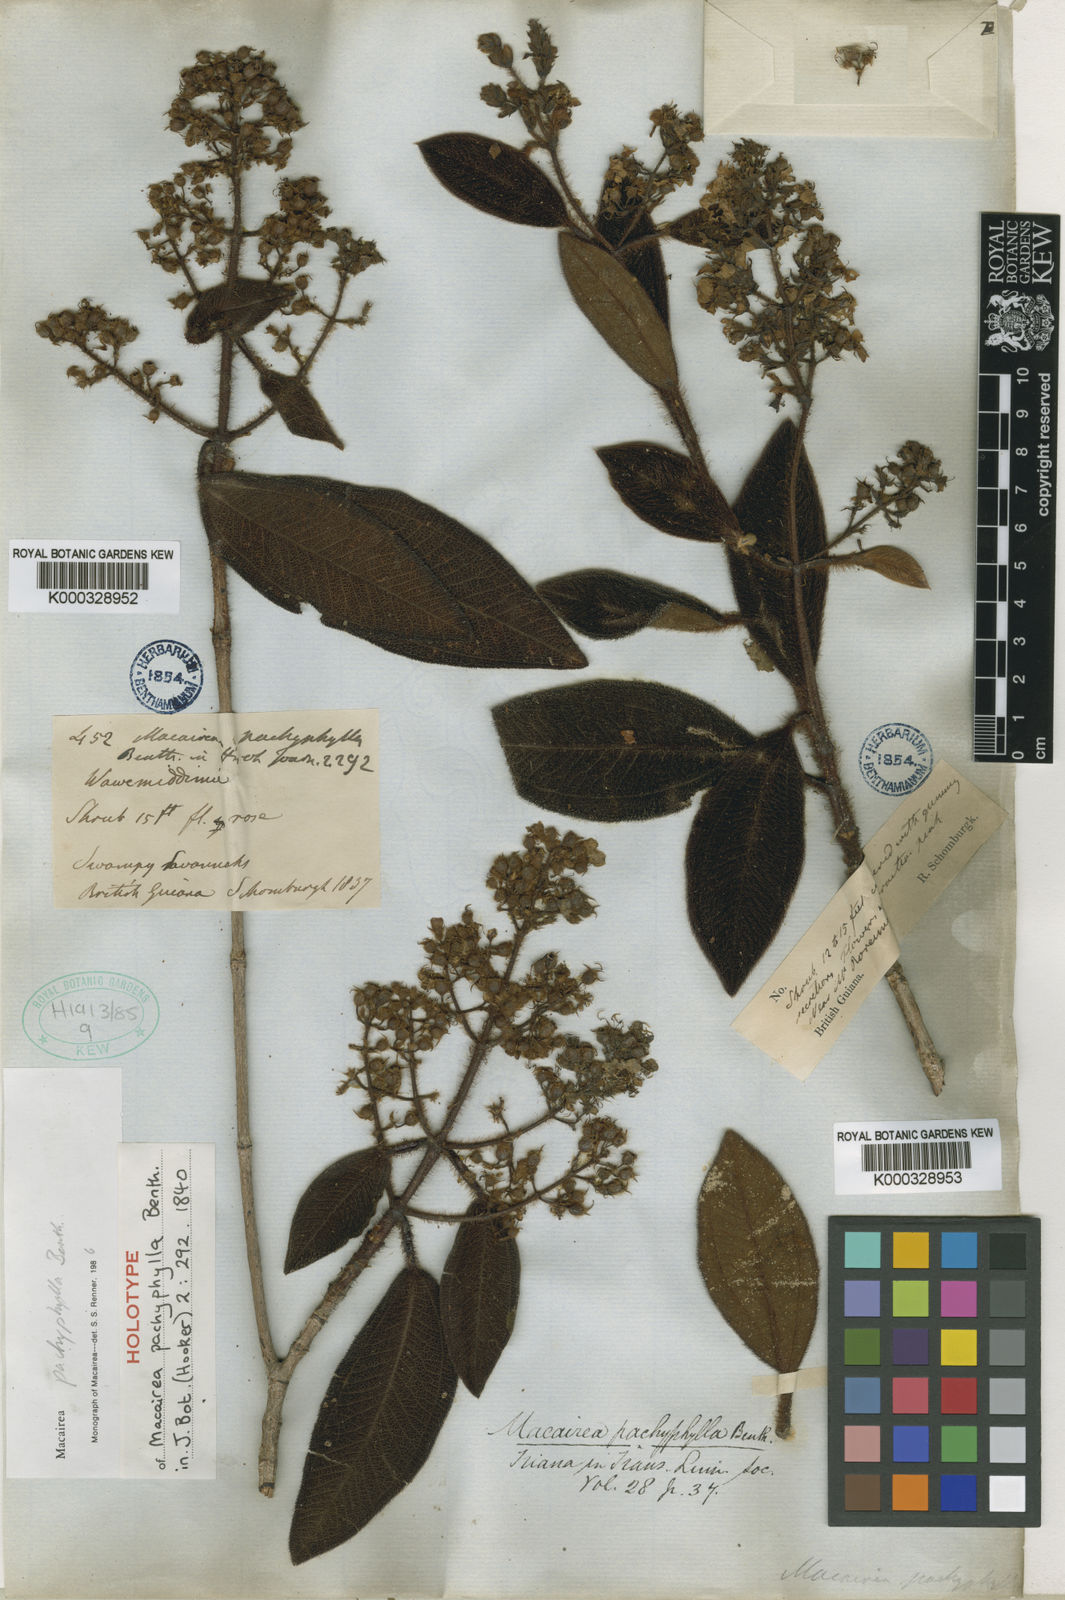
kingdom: Plantae
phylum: Tracheophyta
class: Magnoliopsida
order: Myrtales
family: Melastomataceae
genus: Macairea
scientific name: Macairea pachyphylla
